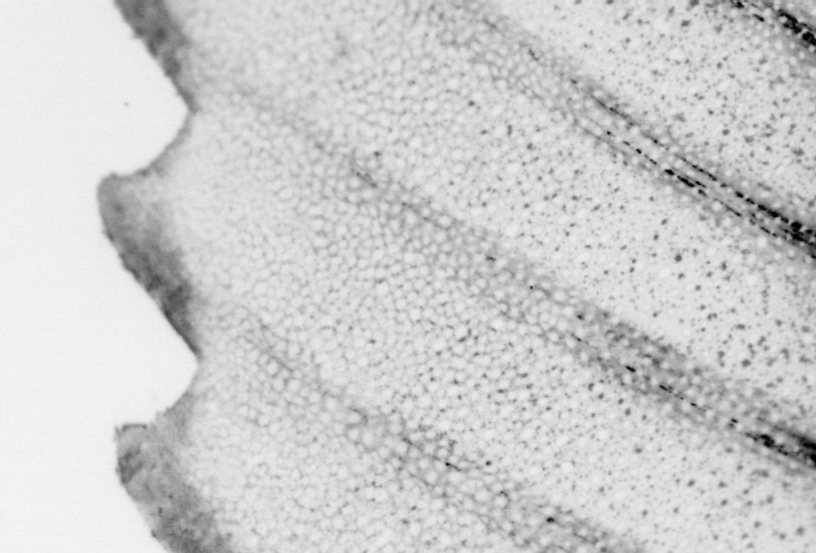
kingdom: Animalia
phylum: Chordata
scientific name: Chordata
